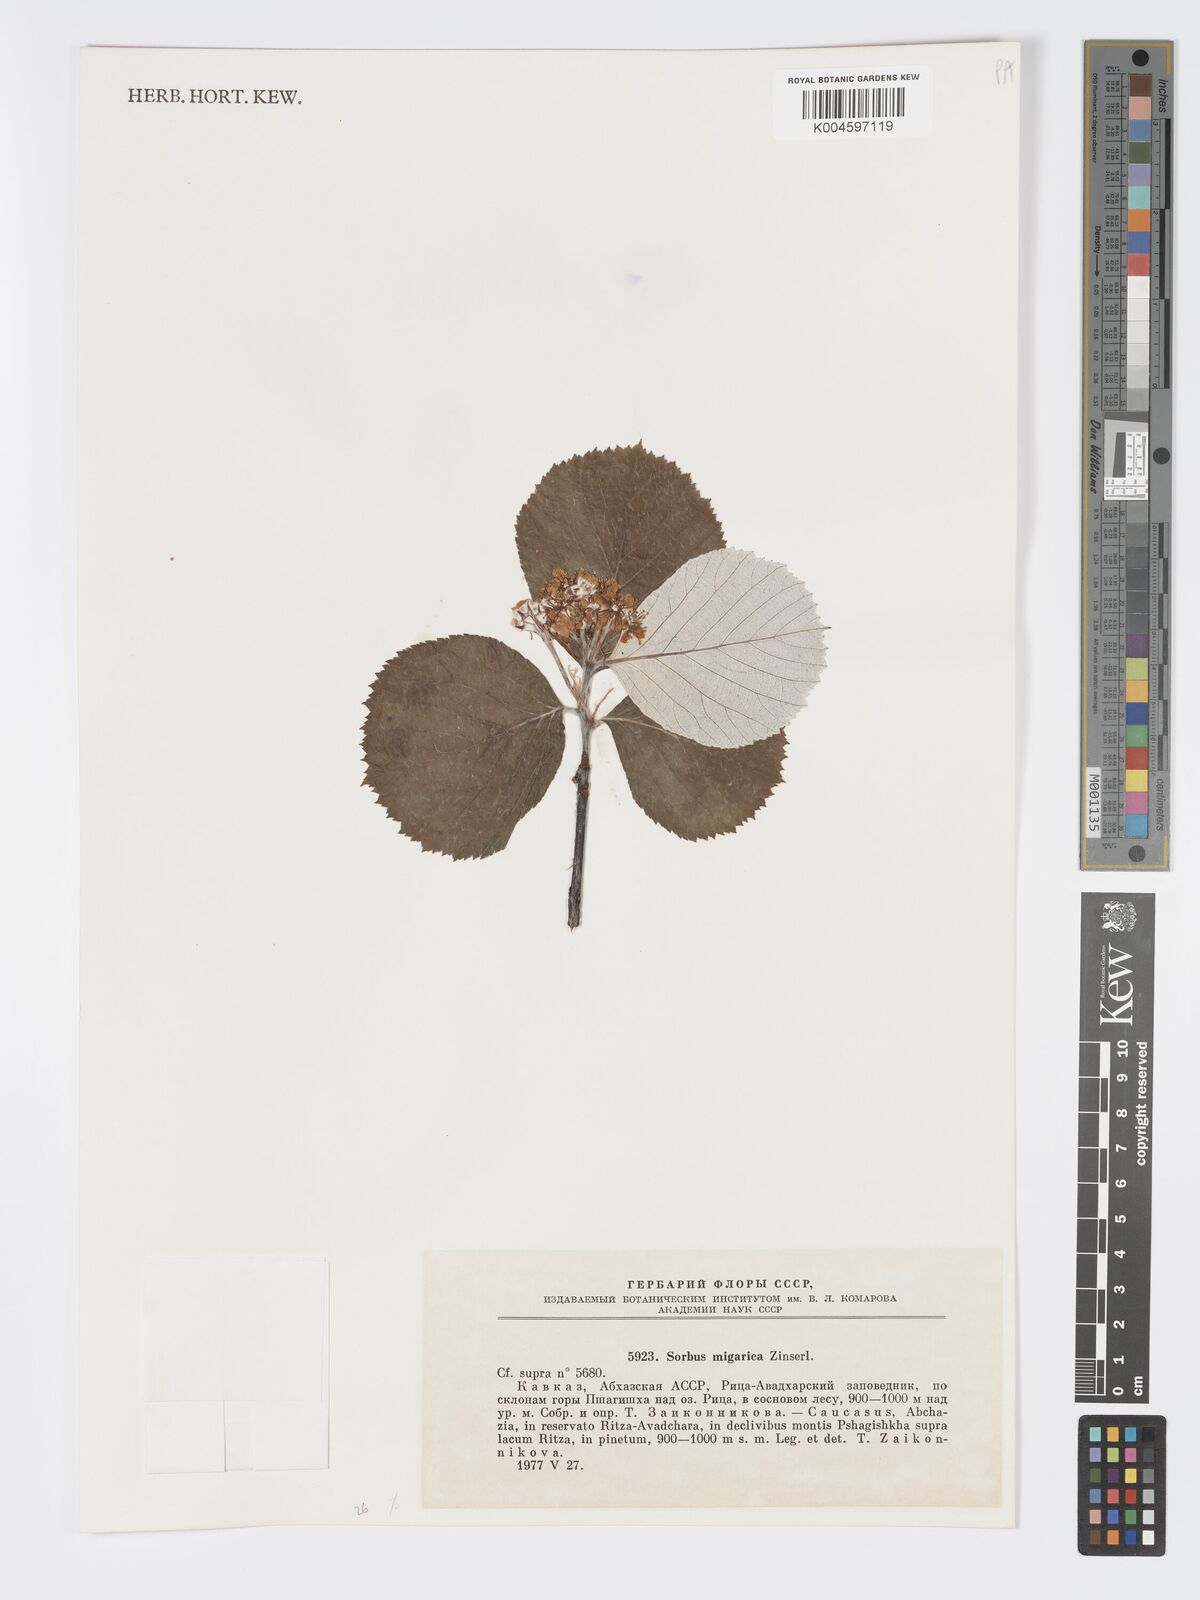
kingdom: Plantae
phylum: Tracheophyta
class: Magnoliopsida
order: Rosales
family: Rosaceae
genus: Aria
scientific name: Aria graeca
